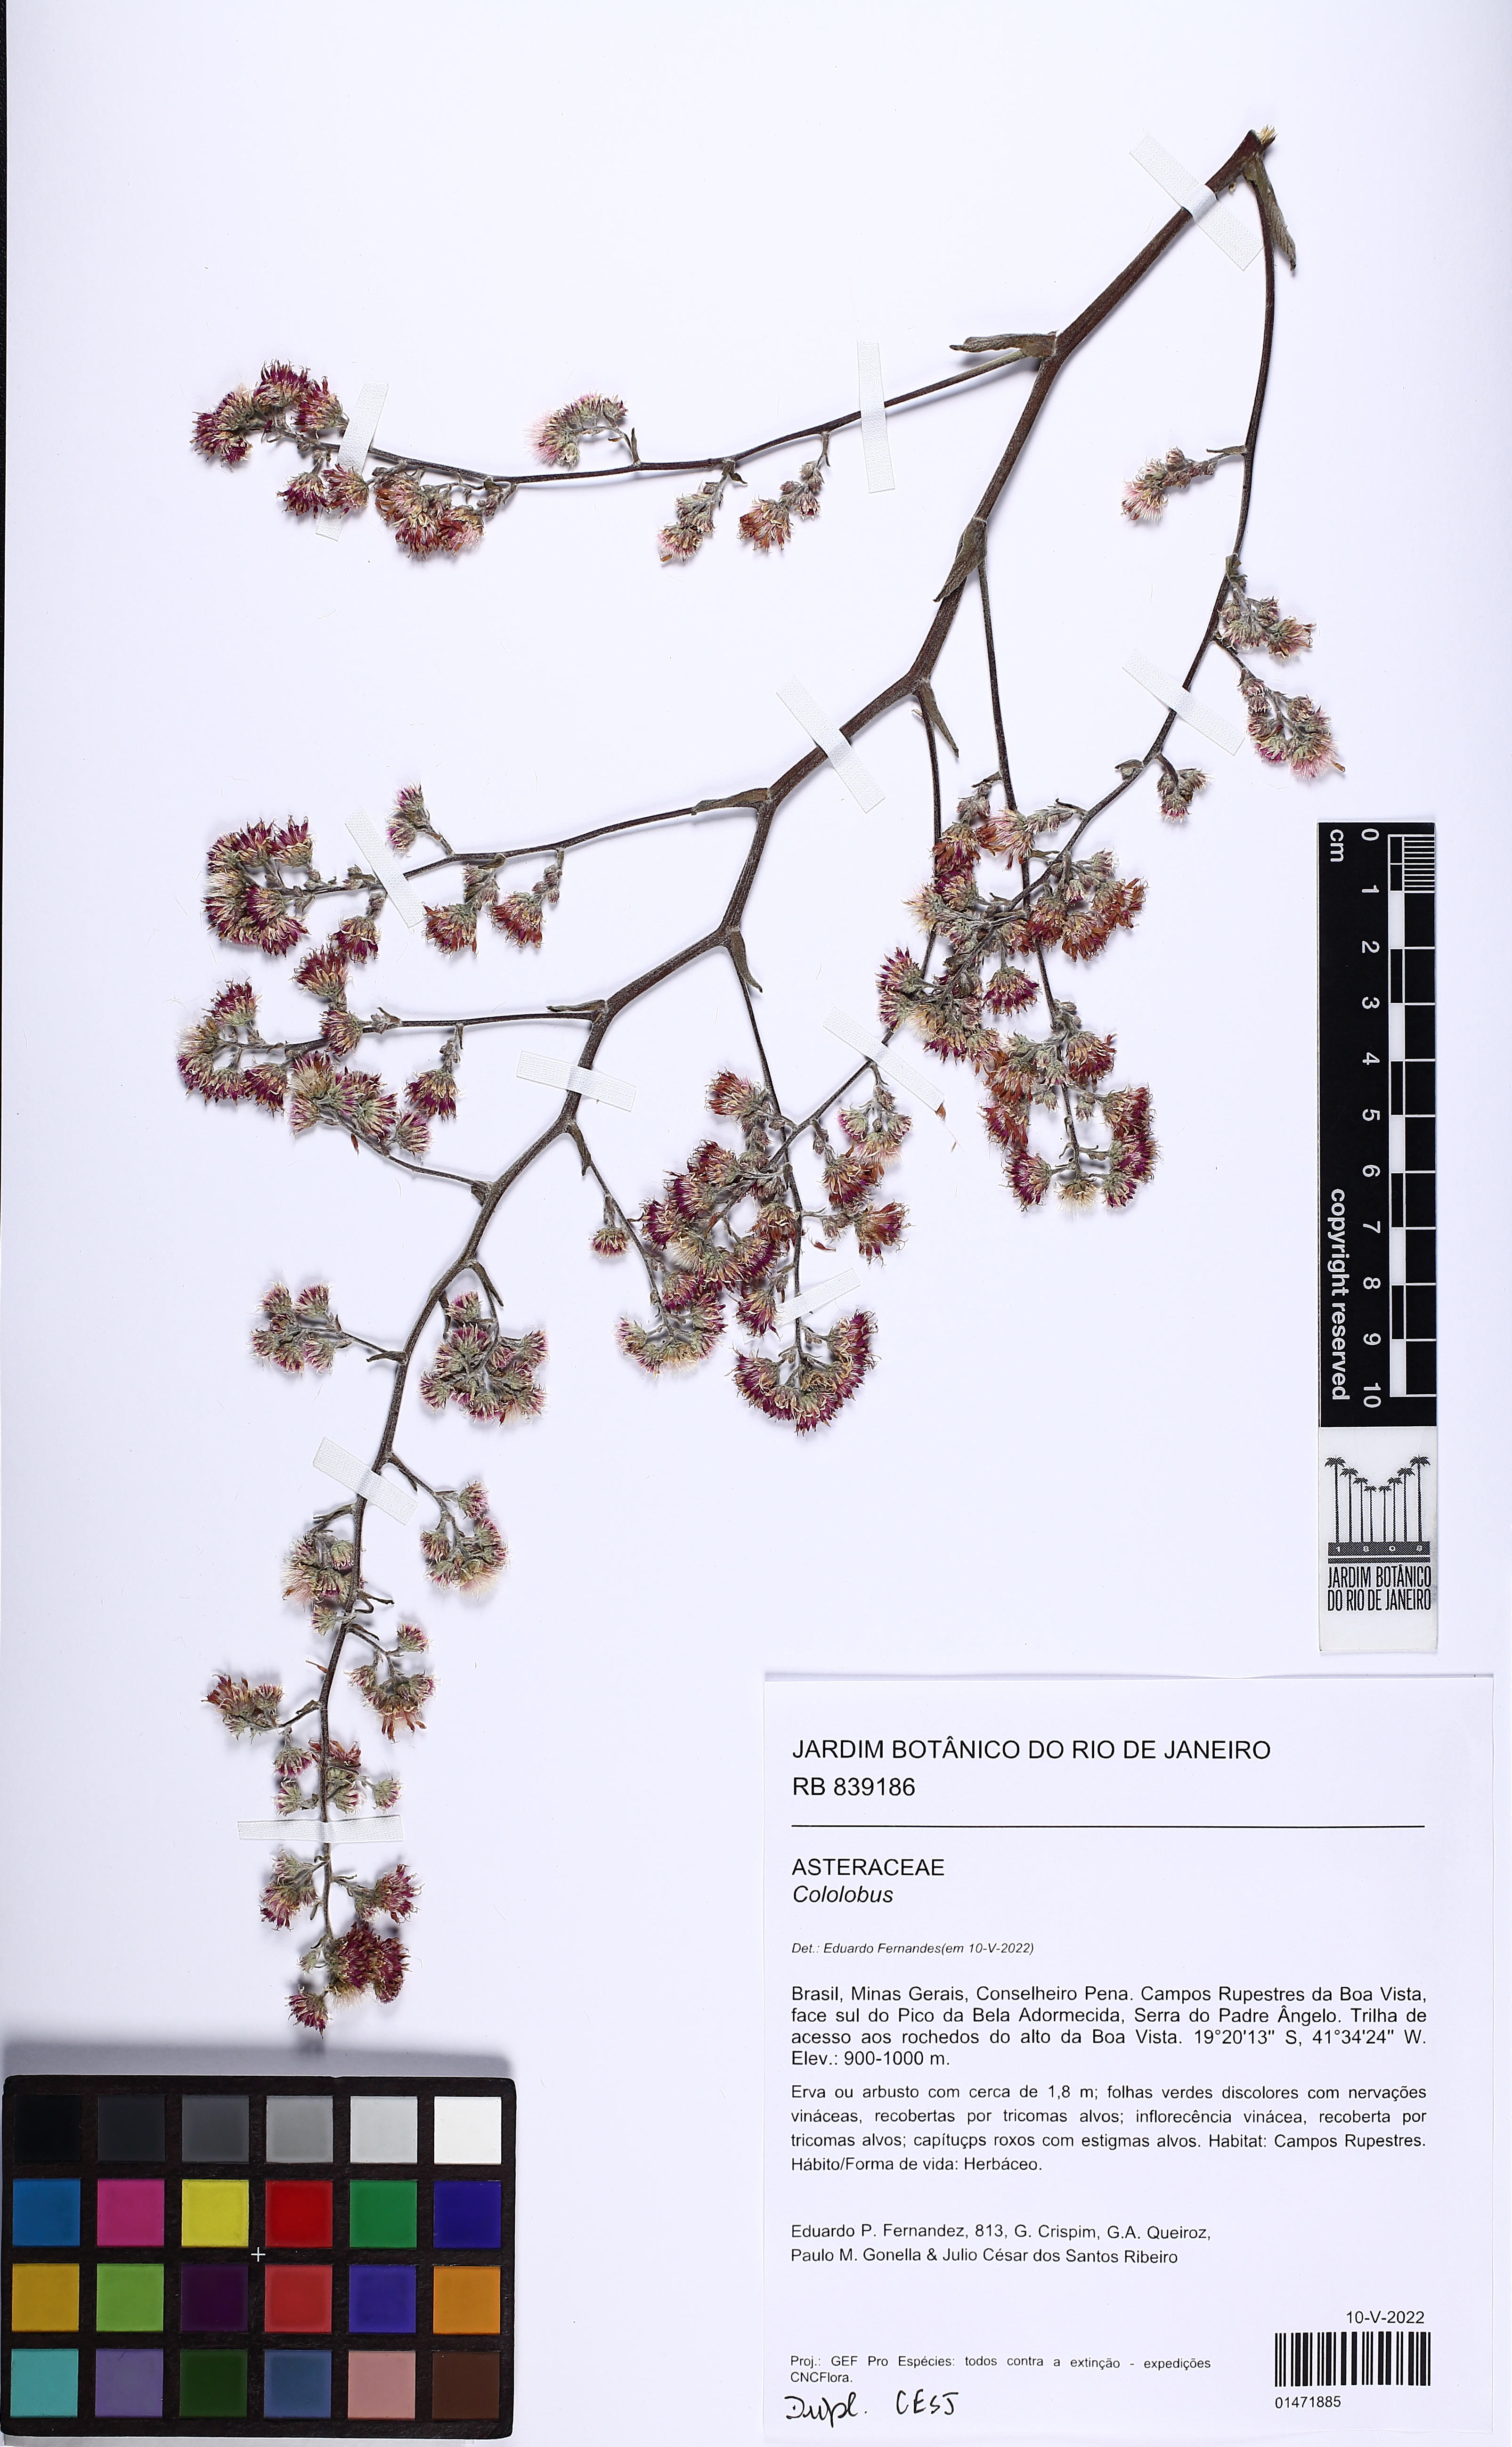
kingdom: Plantae
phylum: Tracheophyta
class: Magnoliopsida
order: Asterales
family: Asteraceae
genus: Cololobus
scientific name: Cololobus rupestris
